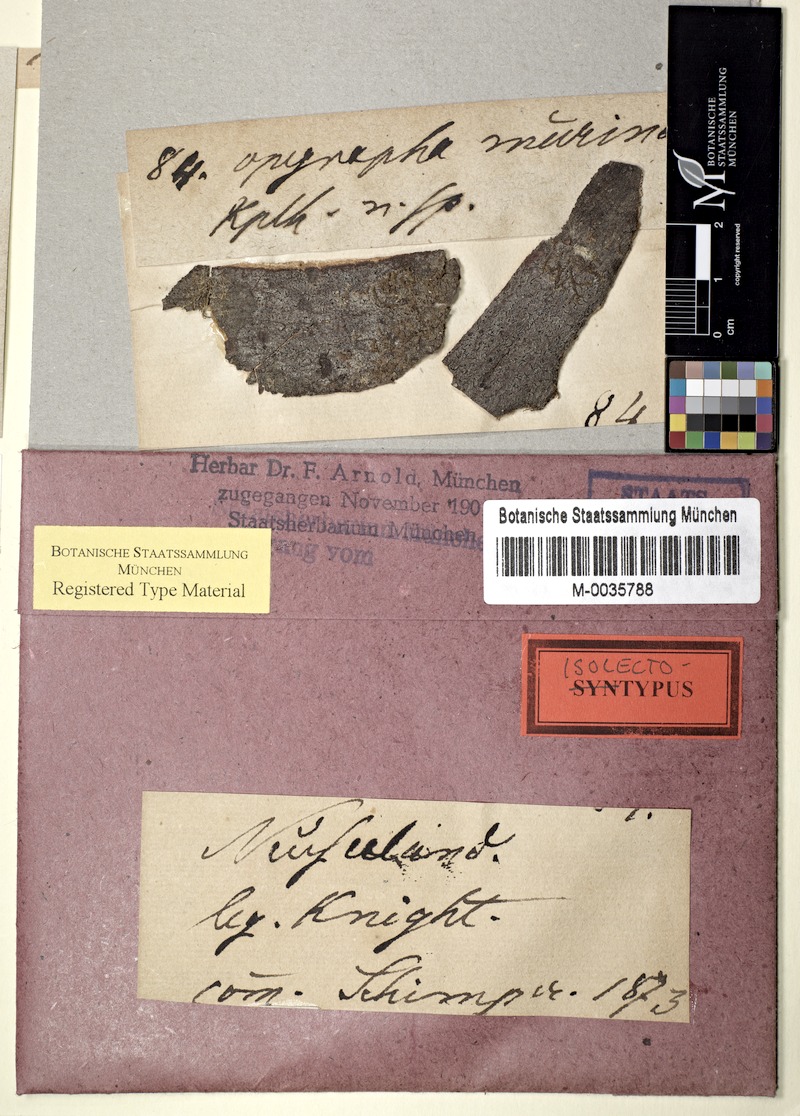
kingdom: Fungi
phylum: Ascomycota
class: Arthoniomycetes
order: Arthoniales
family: Opegraphaceae
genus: Opegrapha
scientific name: Opegrapha
